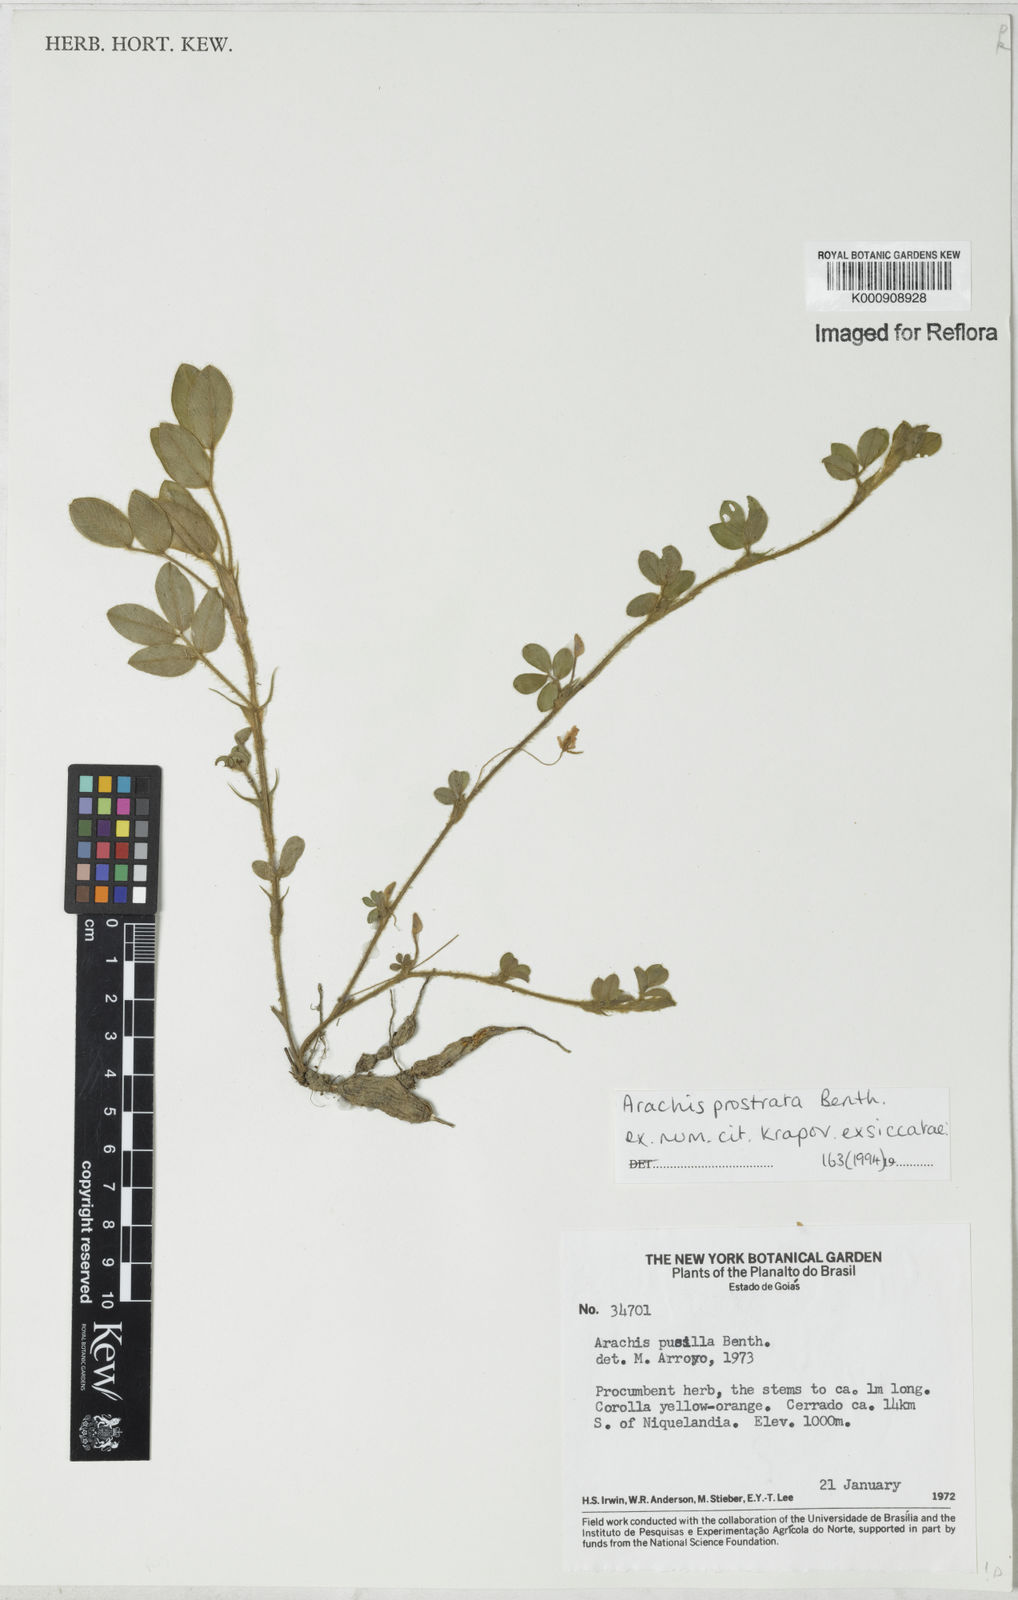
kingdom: Plantae
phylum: Tracheophyta
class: Magnoliopsida
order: Fabales
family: Fabaceae
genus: Arachis
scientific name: Arachis prostrata
